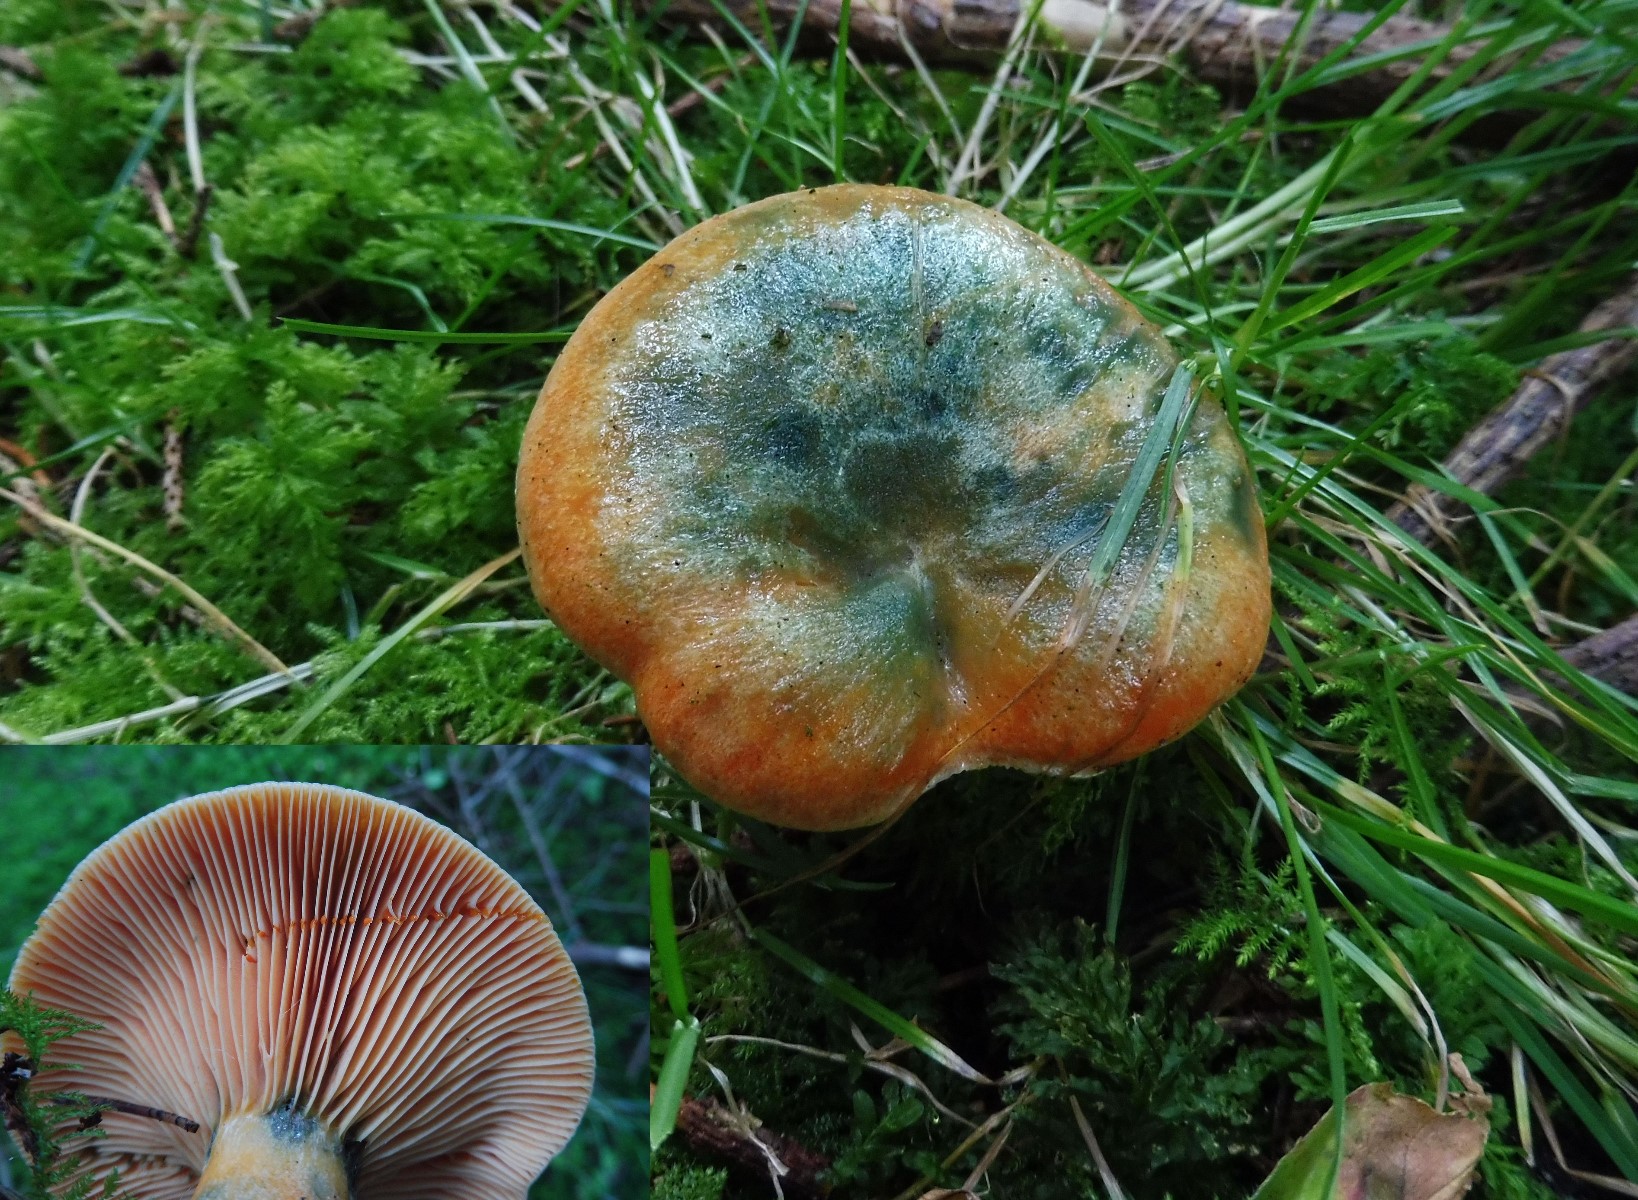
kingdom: Fungi
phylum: Basidiomycota
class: Agaricomycetes
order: Russulales
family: Russulaceae
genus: Lactarius
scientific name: Lactarius deterrimus
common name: gran-mælkehat
